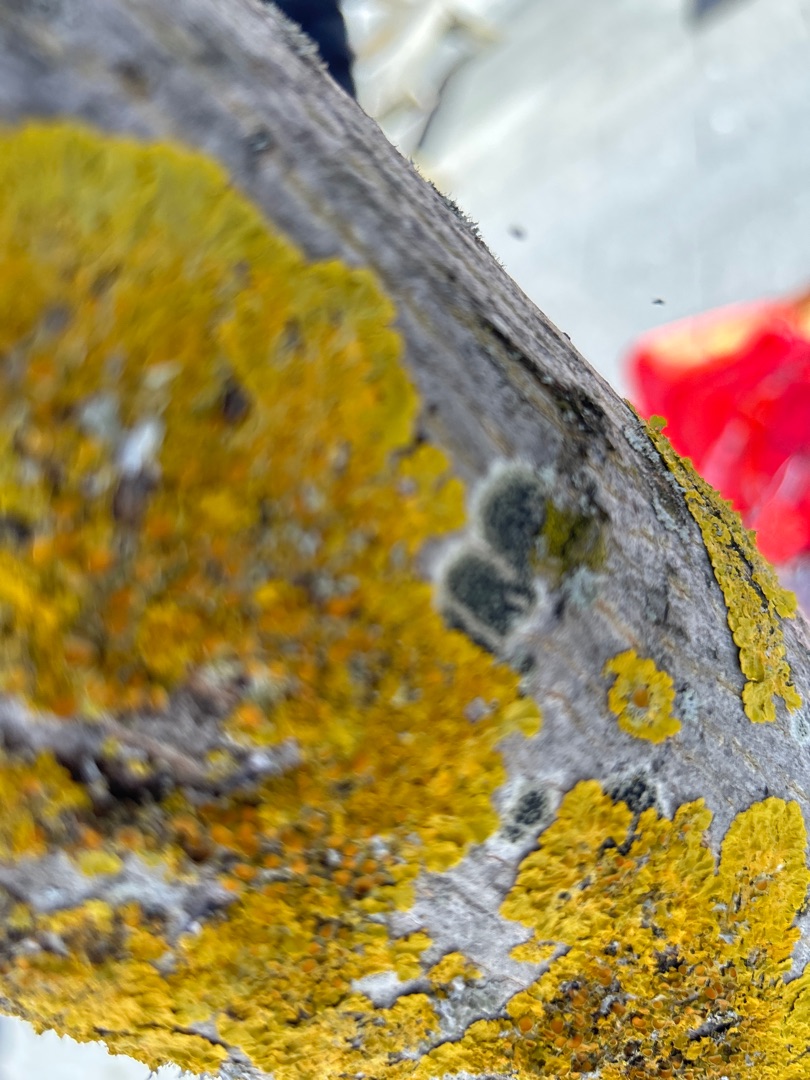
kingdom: Fungi
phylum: Ascomycota
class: Lecanoromycetes
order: Teloschistales
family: Teloschistaceae
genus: Xanthoria
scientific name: Xanthoria parietina
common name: Almindelig væggelav
